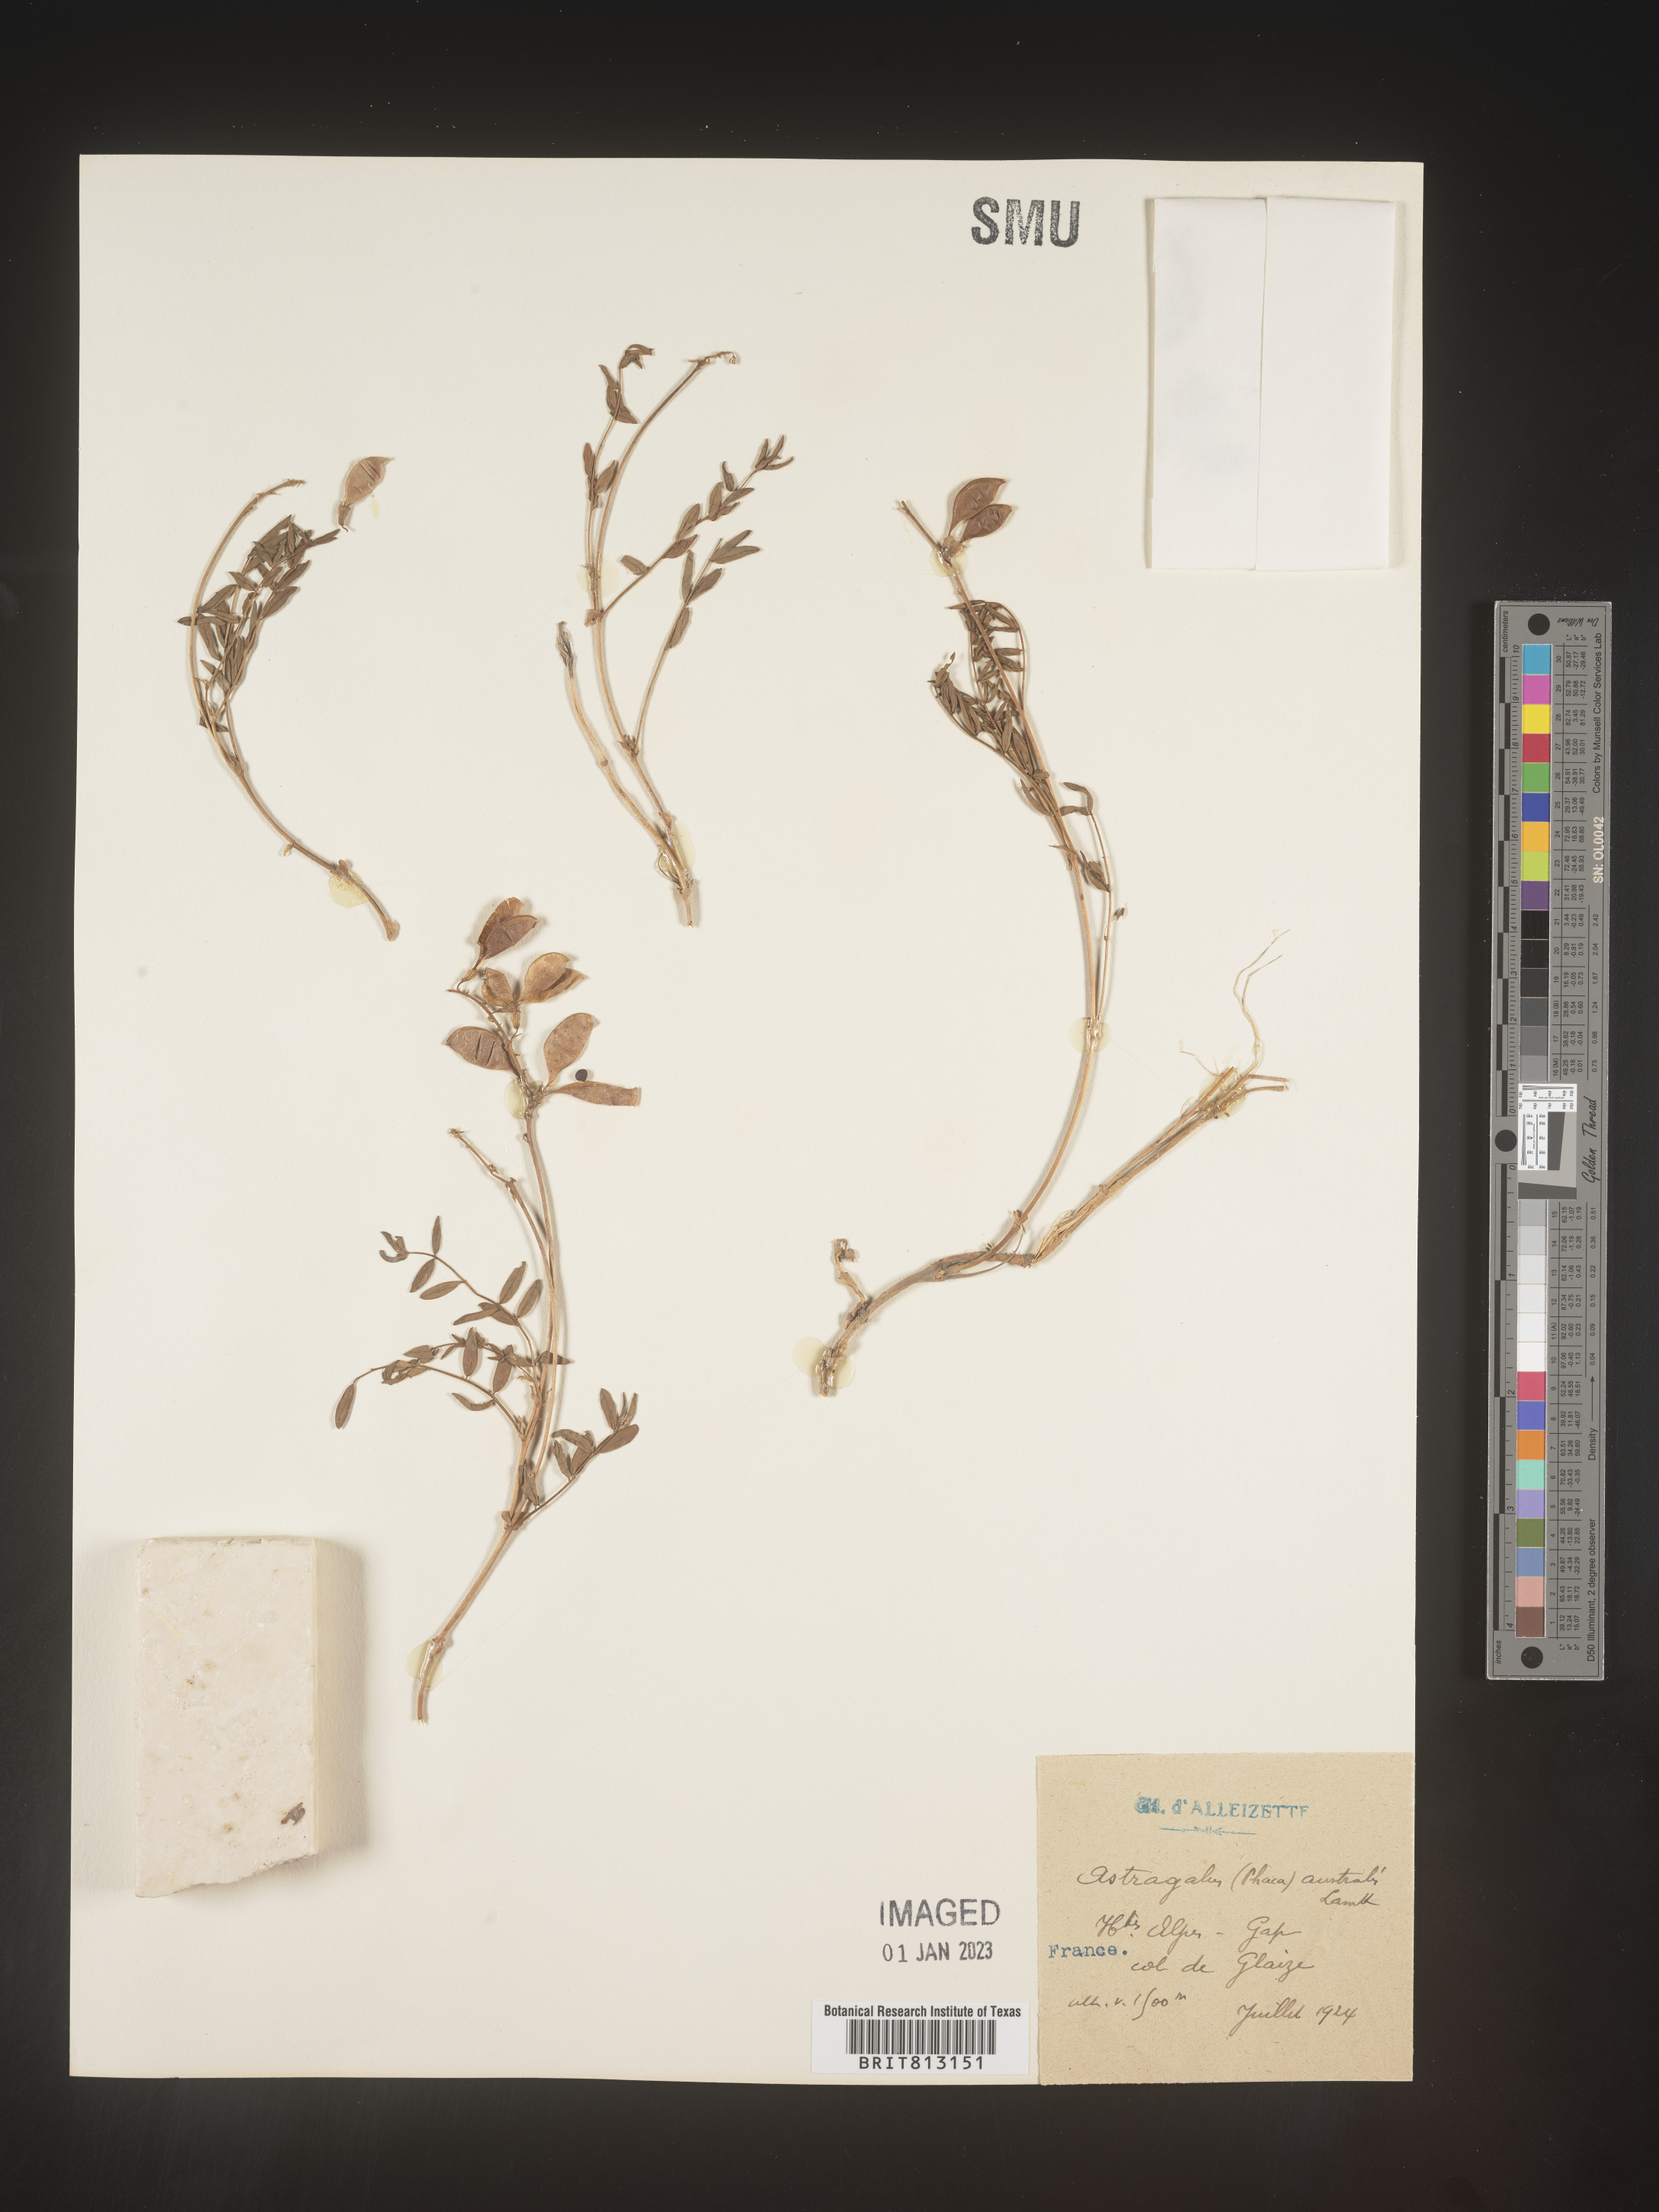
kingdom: Plantae
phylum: Tracheophyta
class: Magnoliopsida
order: Fabales
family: Fabaceae
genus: Astragalus
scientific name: Astragalus
